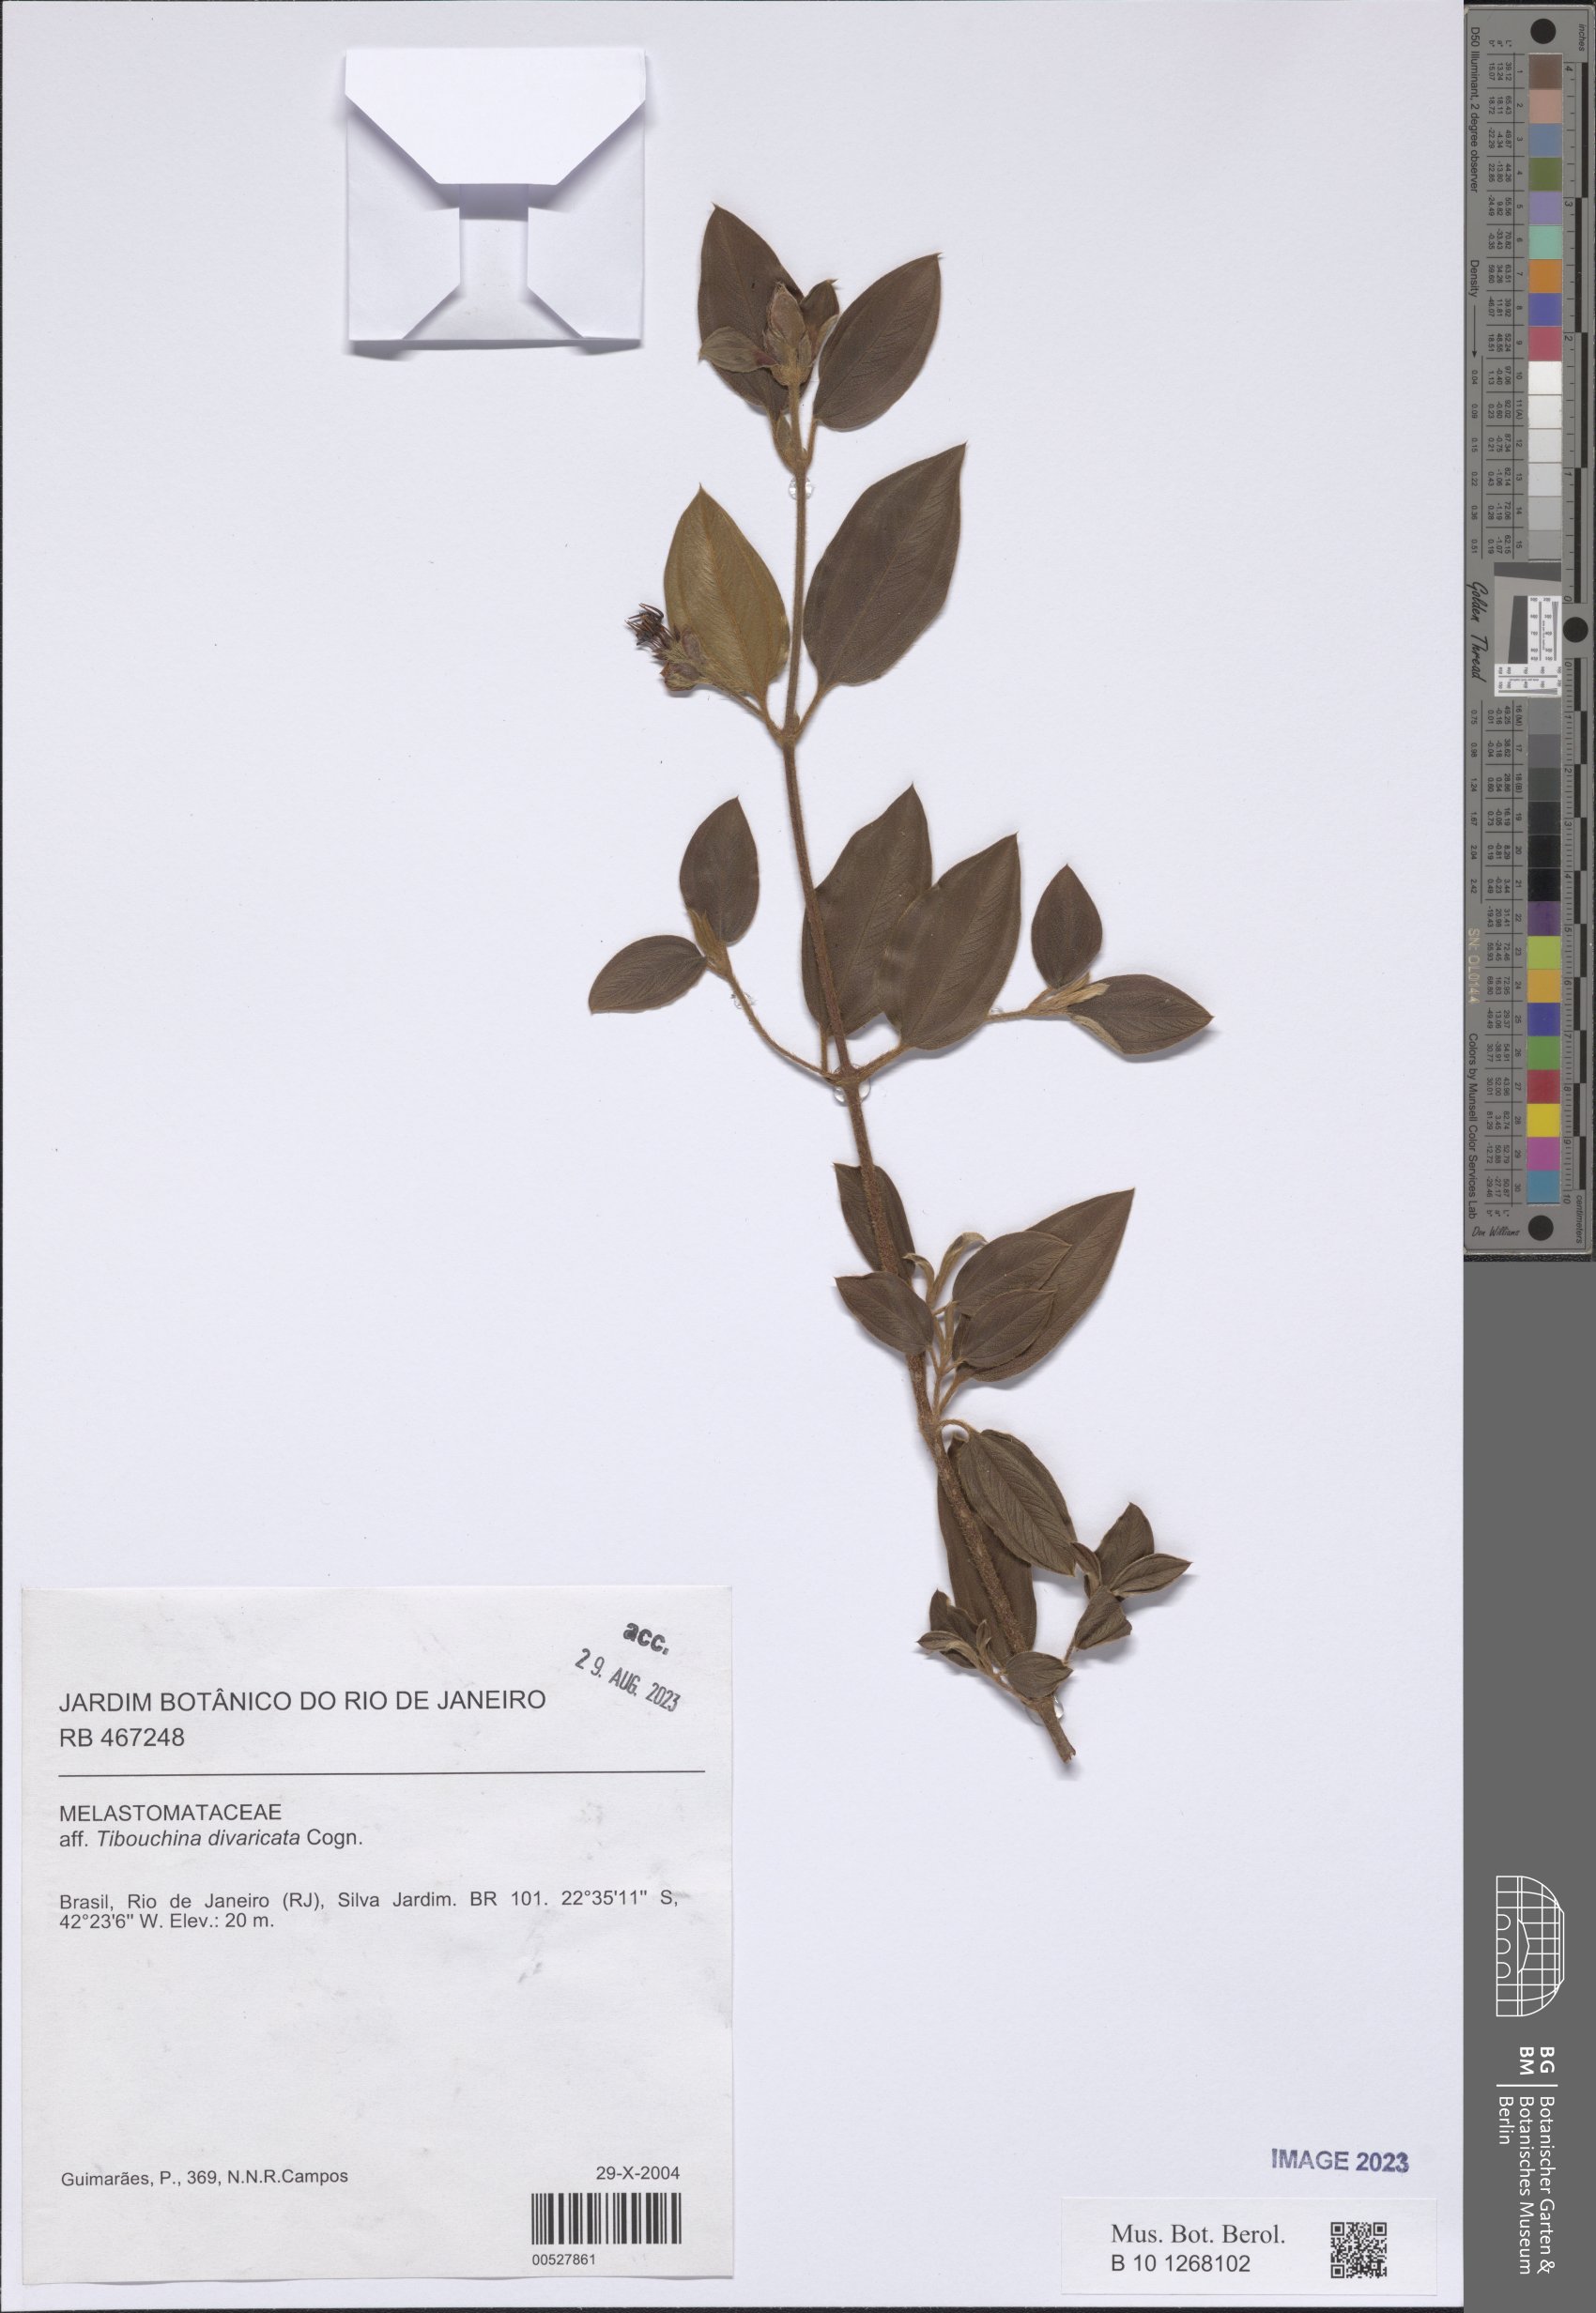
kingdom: Plantae
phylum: Tracheophyta
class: Magnoliopsida
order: Myrtales
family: Melastomataceae
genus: Pleroma
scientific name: Pleroma divaricatum
